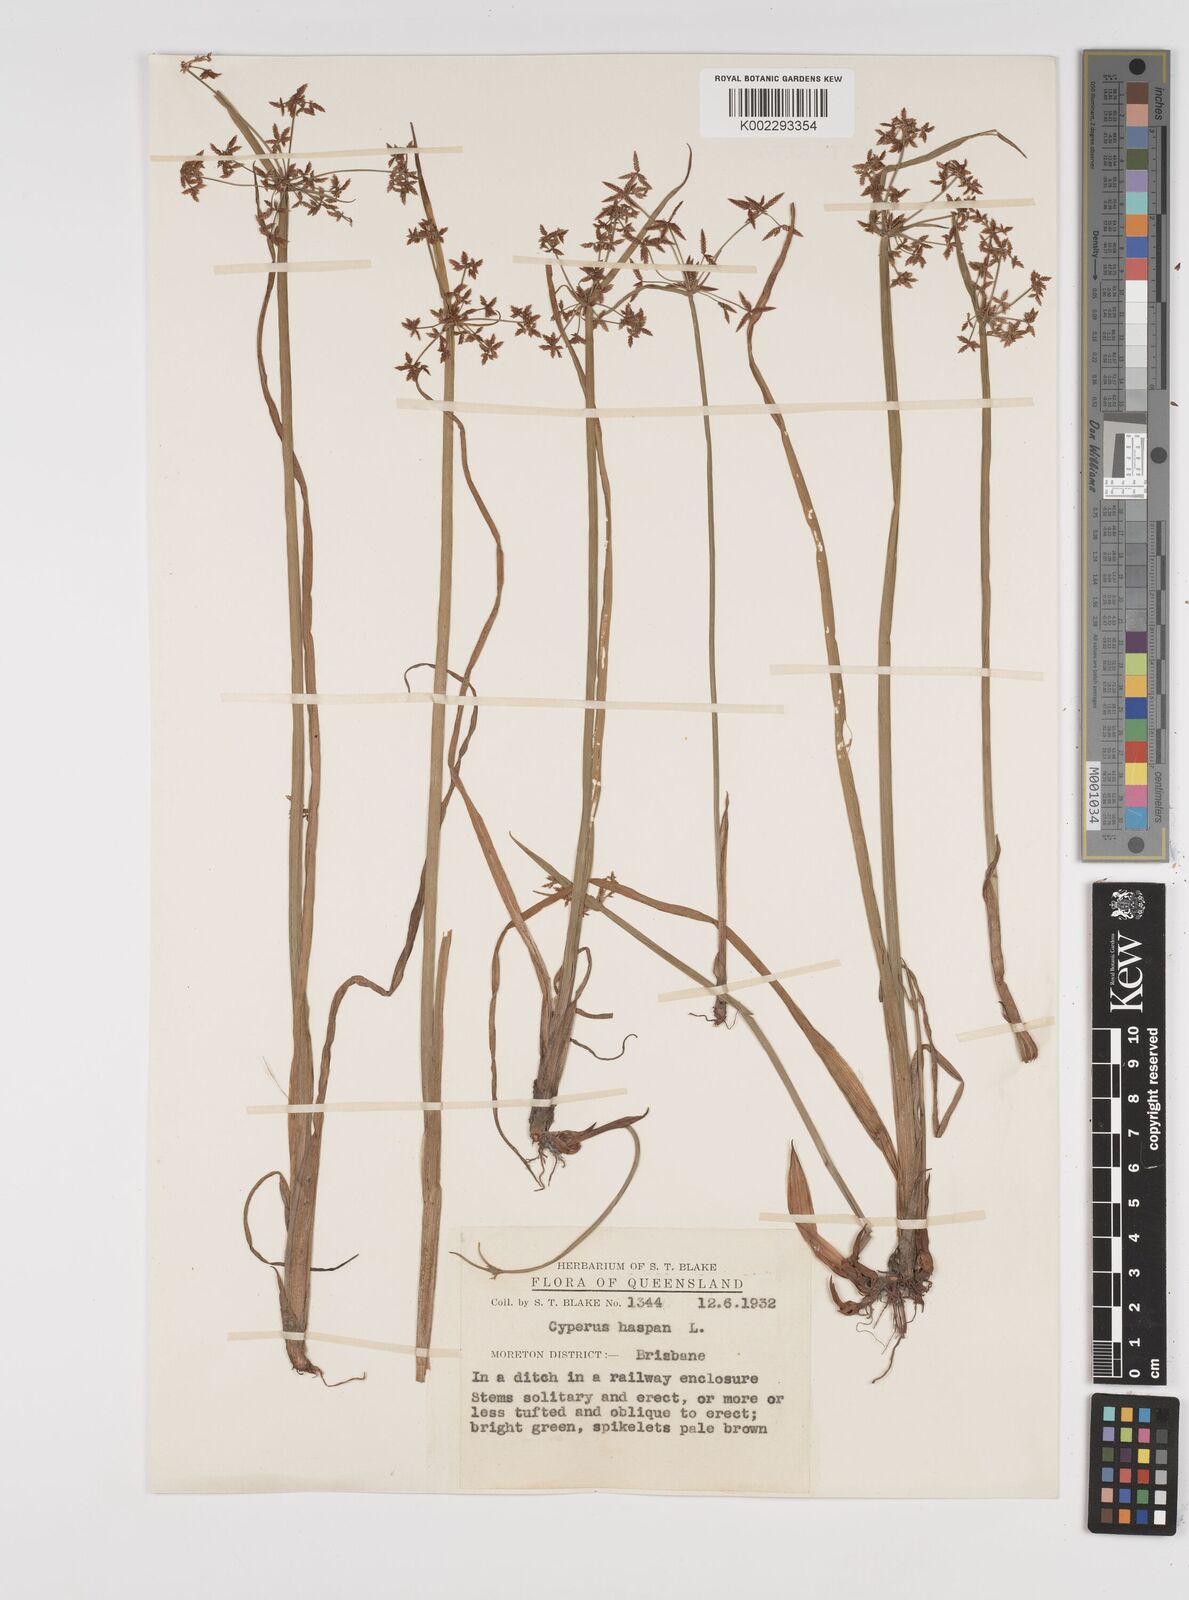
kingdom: Plantae
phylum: Tracheophyta
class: Liliopsida
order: Poales
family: Cyperaceae
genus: Cyperus
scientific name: Cyperus haspan
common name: Haspan flatsedge
